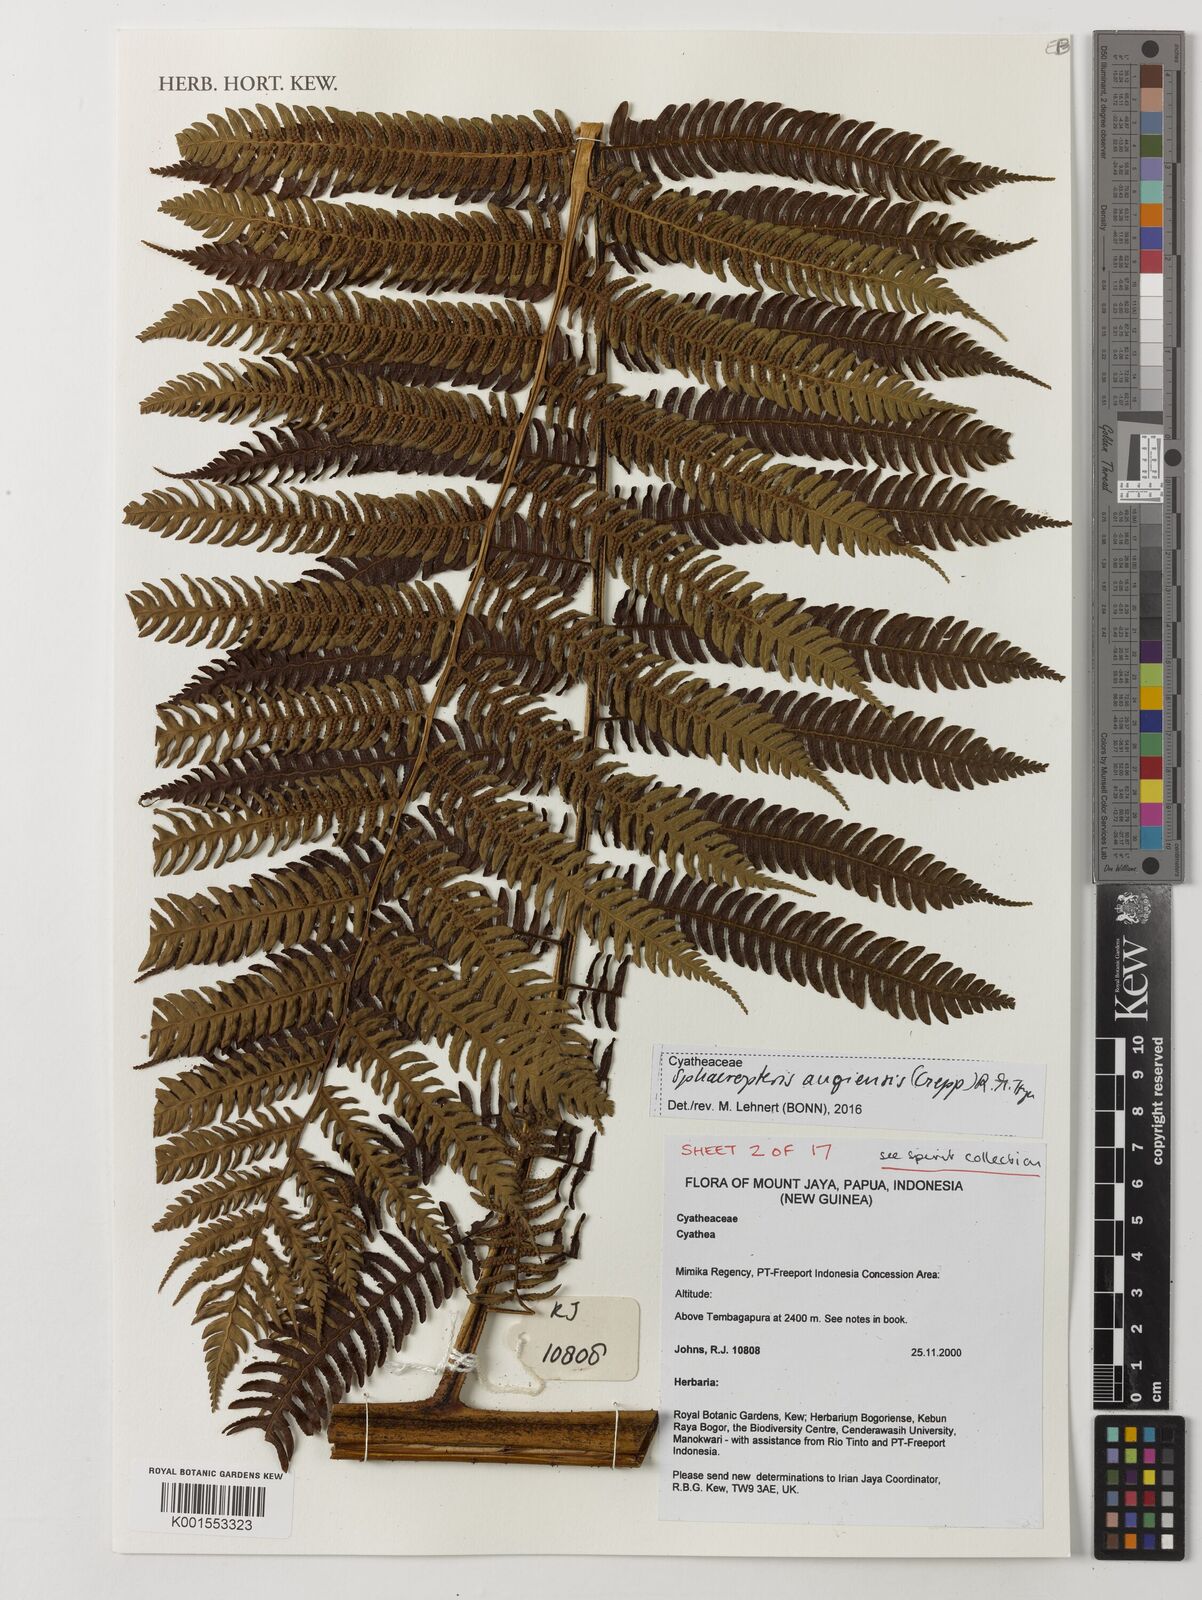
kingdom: Plantae
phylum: Tracheophyta
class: Polypodiopsida
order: Cyatheales
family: Cyatheaceae
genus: Sphaeropteris
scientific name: Sphaeropteris
